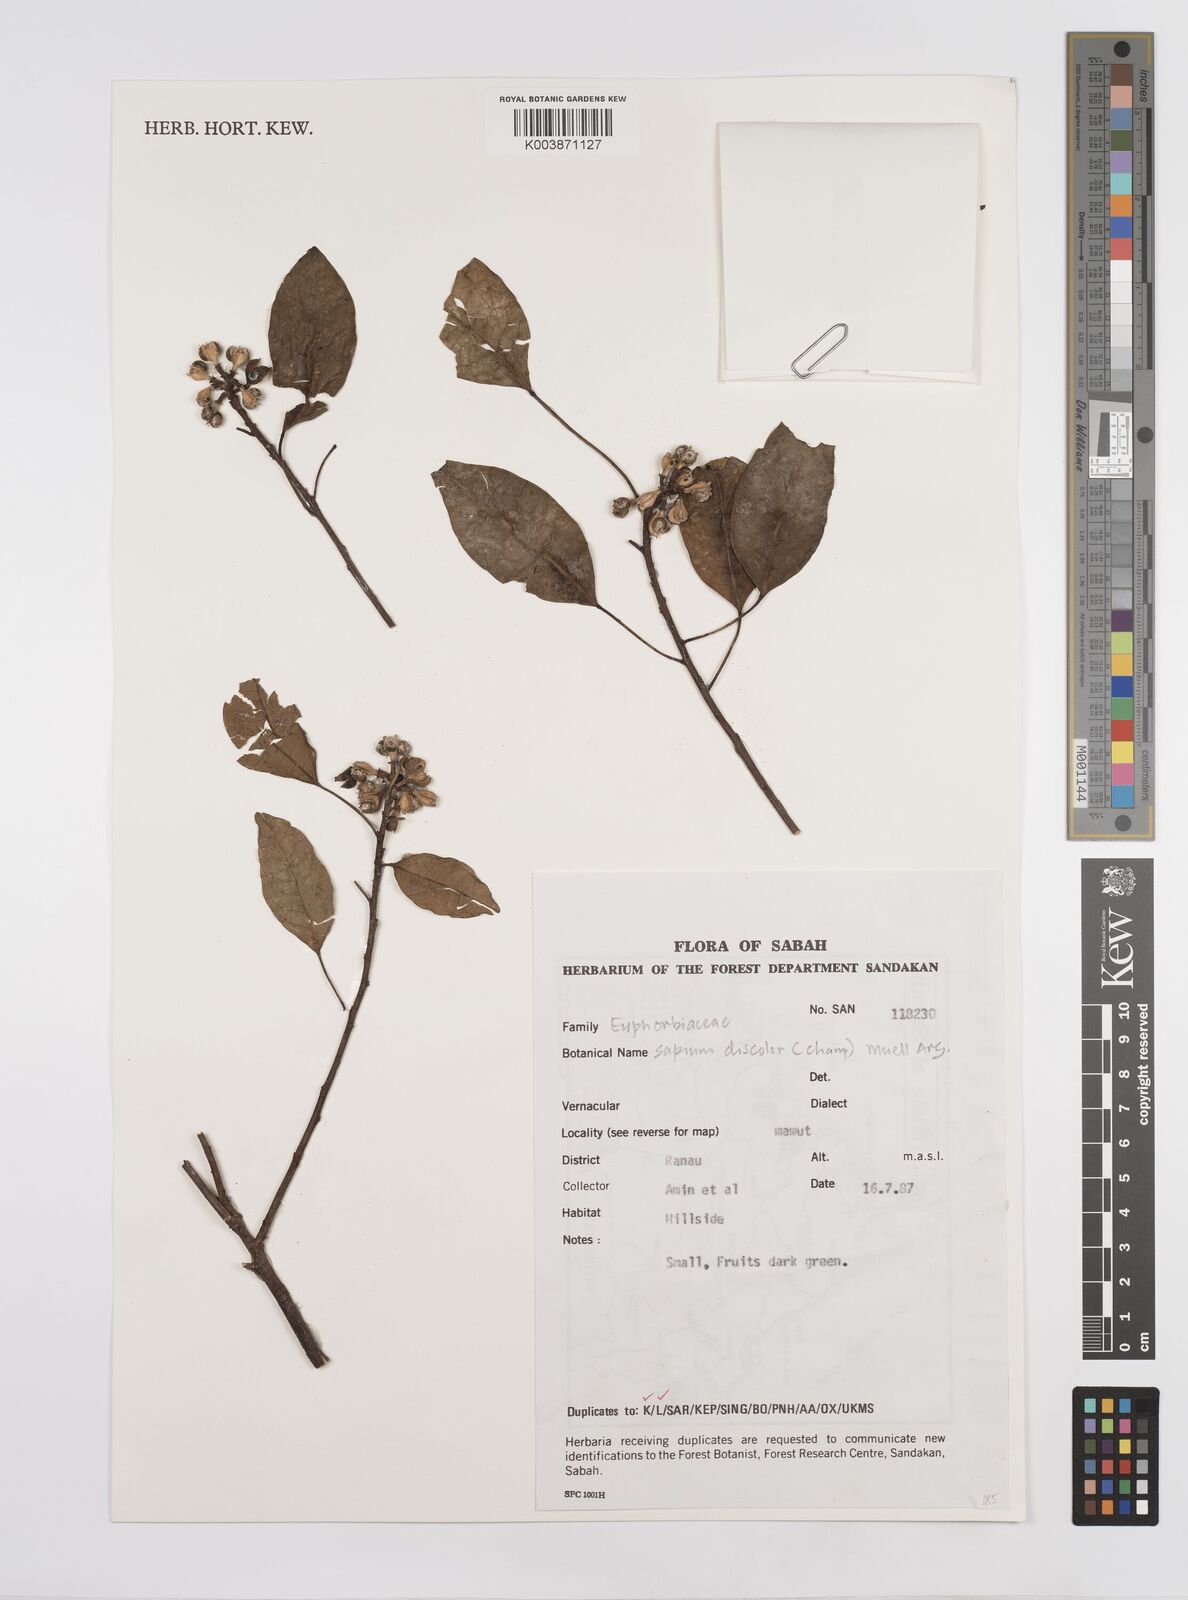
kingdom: Plantae
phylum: Tracheophyta
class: Magnoliopsida
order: Malpighiales
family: Euphorbiaceae
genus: Triadica
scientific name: Triadica cochinchinensis
